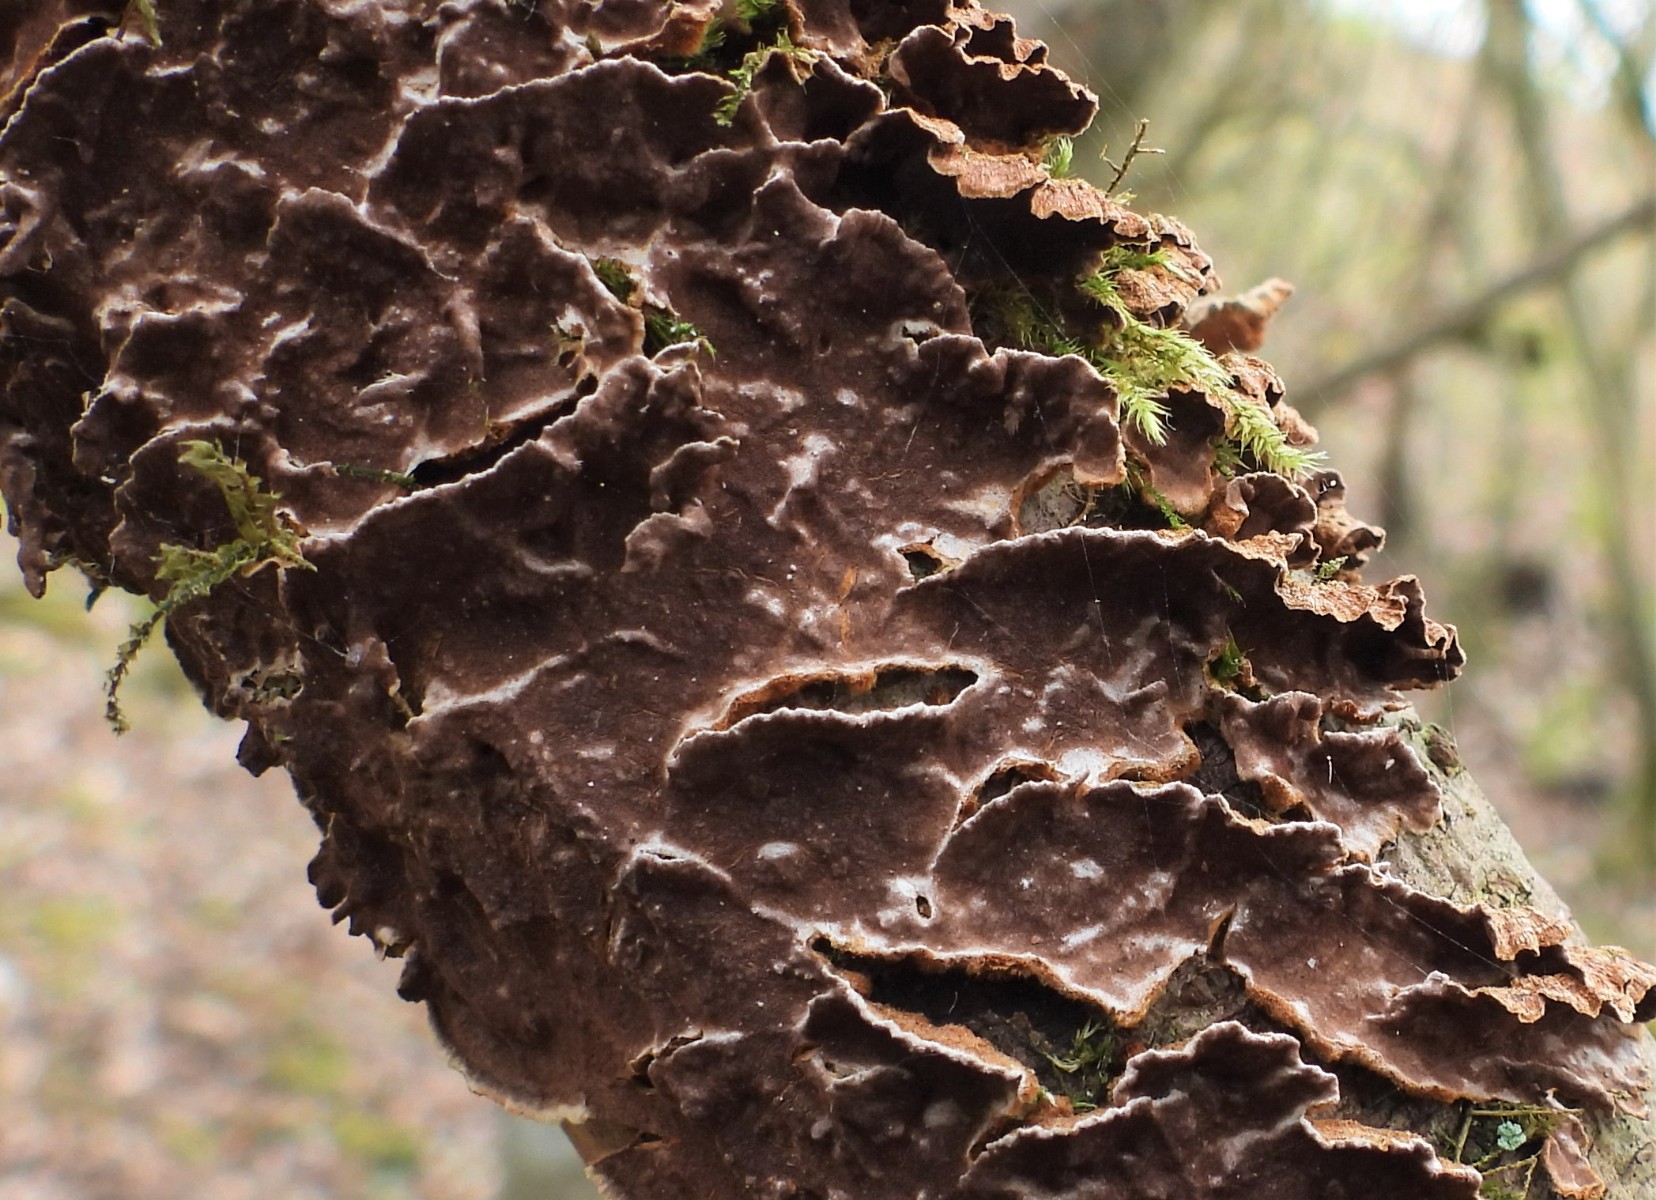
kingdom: Fungi
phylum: Basidiomycota
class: Agaricomycetes
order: Hymenochaetales
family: Hymenochaetaceae
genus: Hydnoporia
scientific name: Hydnoporia tabacina
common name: tobaksbrun ruslædersvamp
